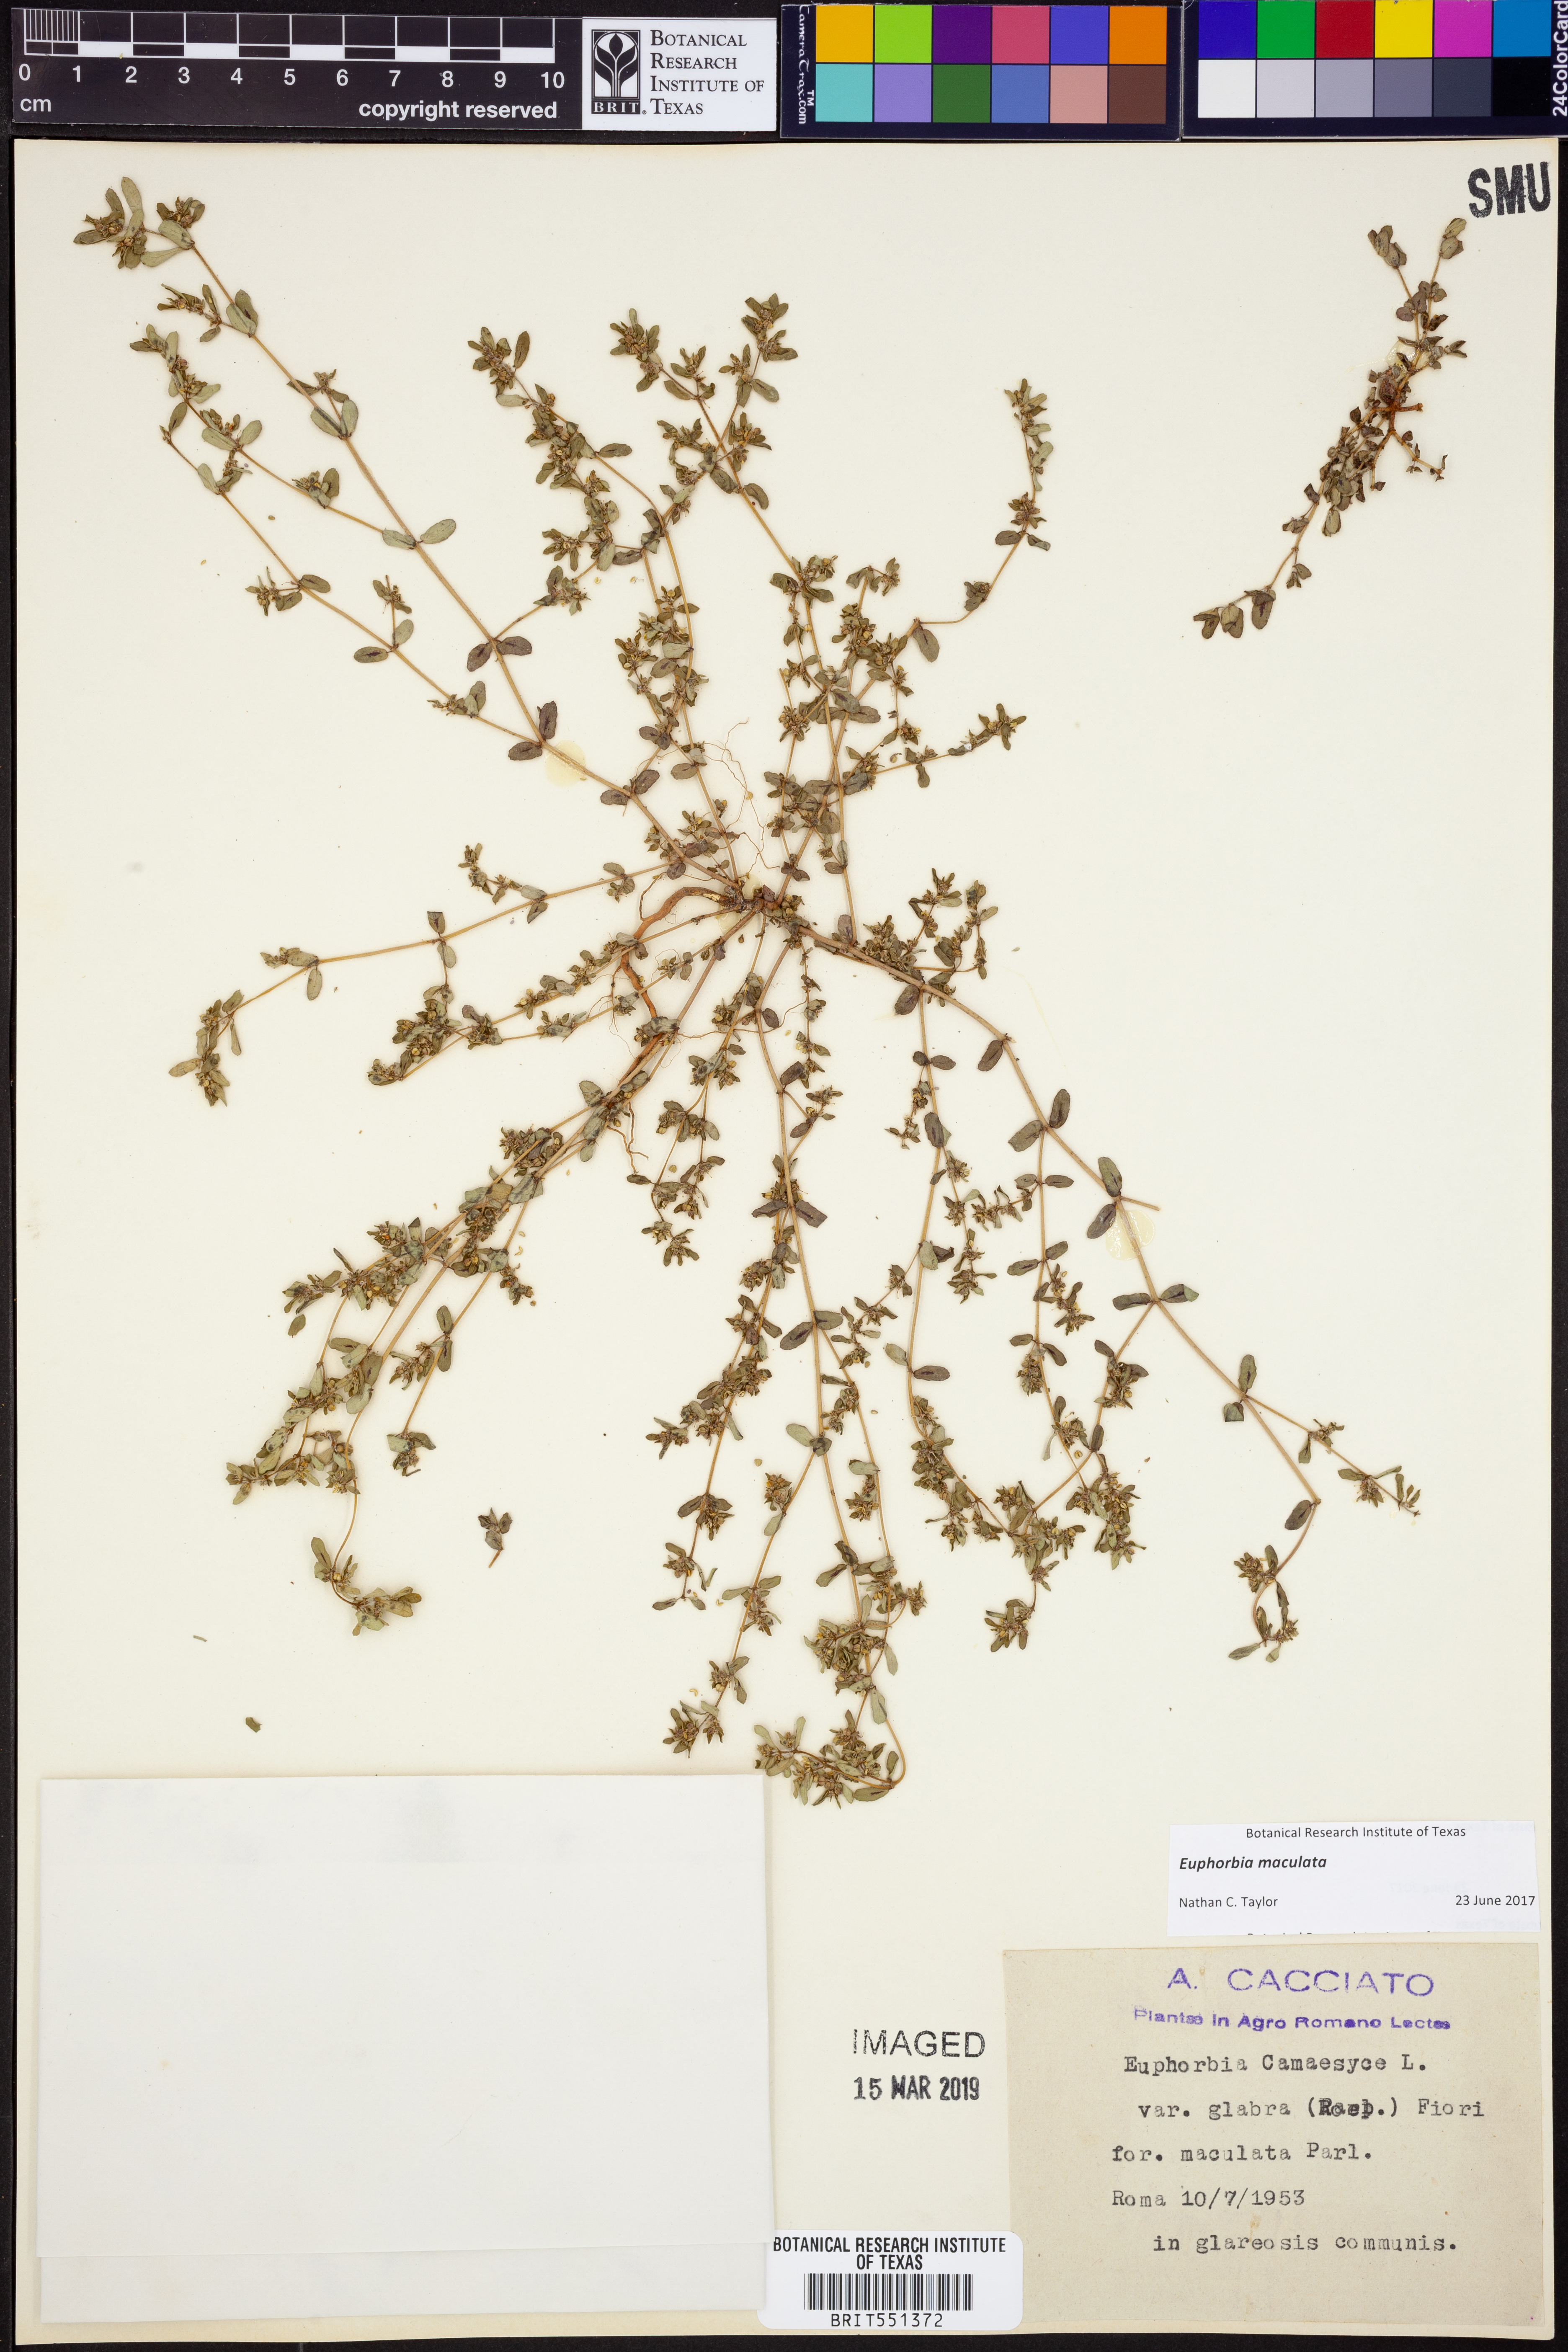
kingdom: Plantae
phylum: Tracheophyta
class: Magnoliopsida
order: Malpighiales
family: Euphorbiaceae
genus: Euphorbia
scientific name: Euphorbia maculata
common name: Spotted spurge
